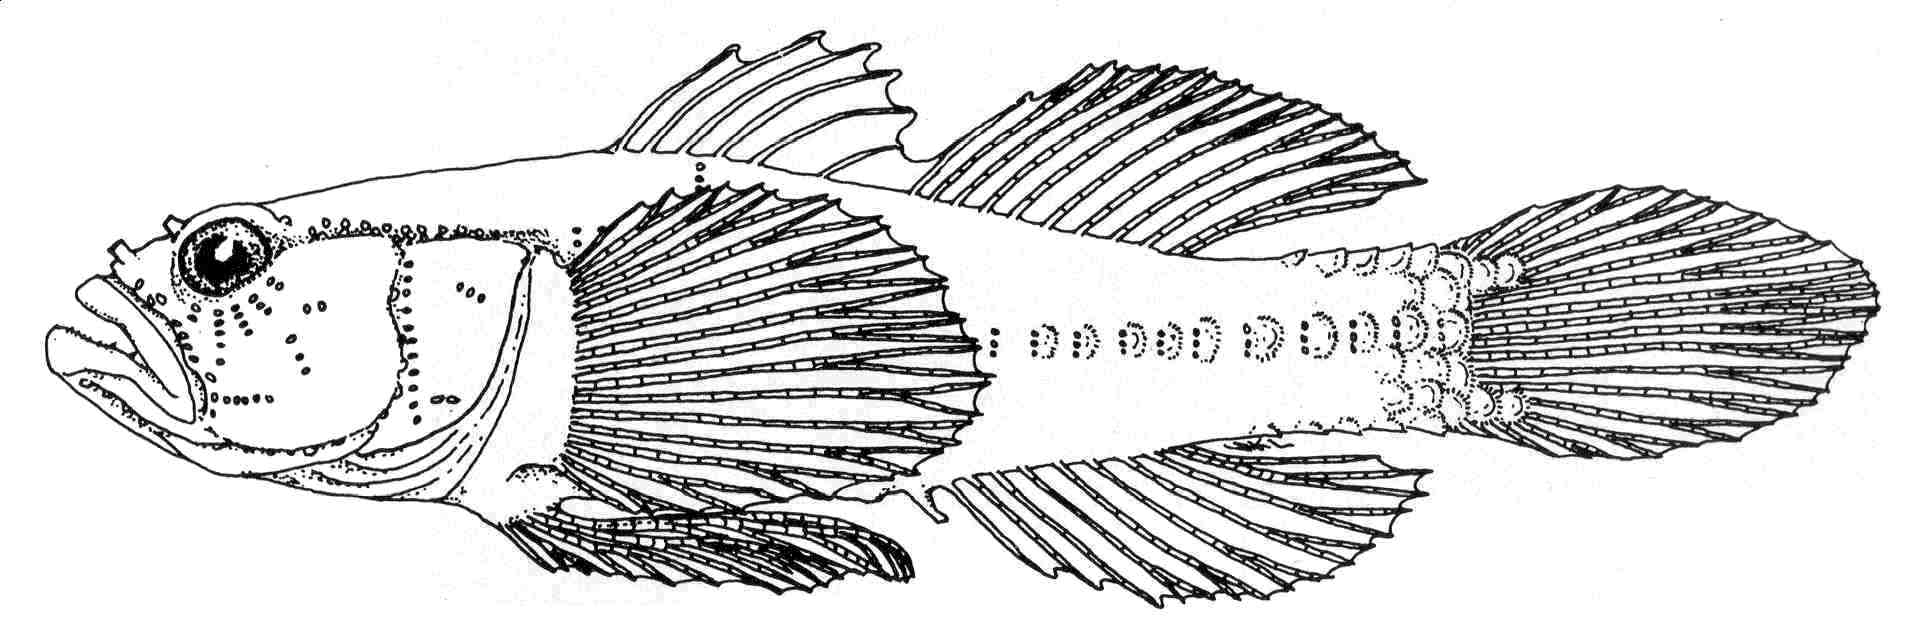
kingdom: Animalia
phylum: Chordata
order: Perciformes
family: Gobiidae
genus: Larsonella
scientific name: Larsonella pumila
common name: Dwarf slippery goby
